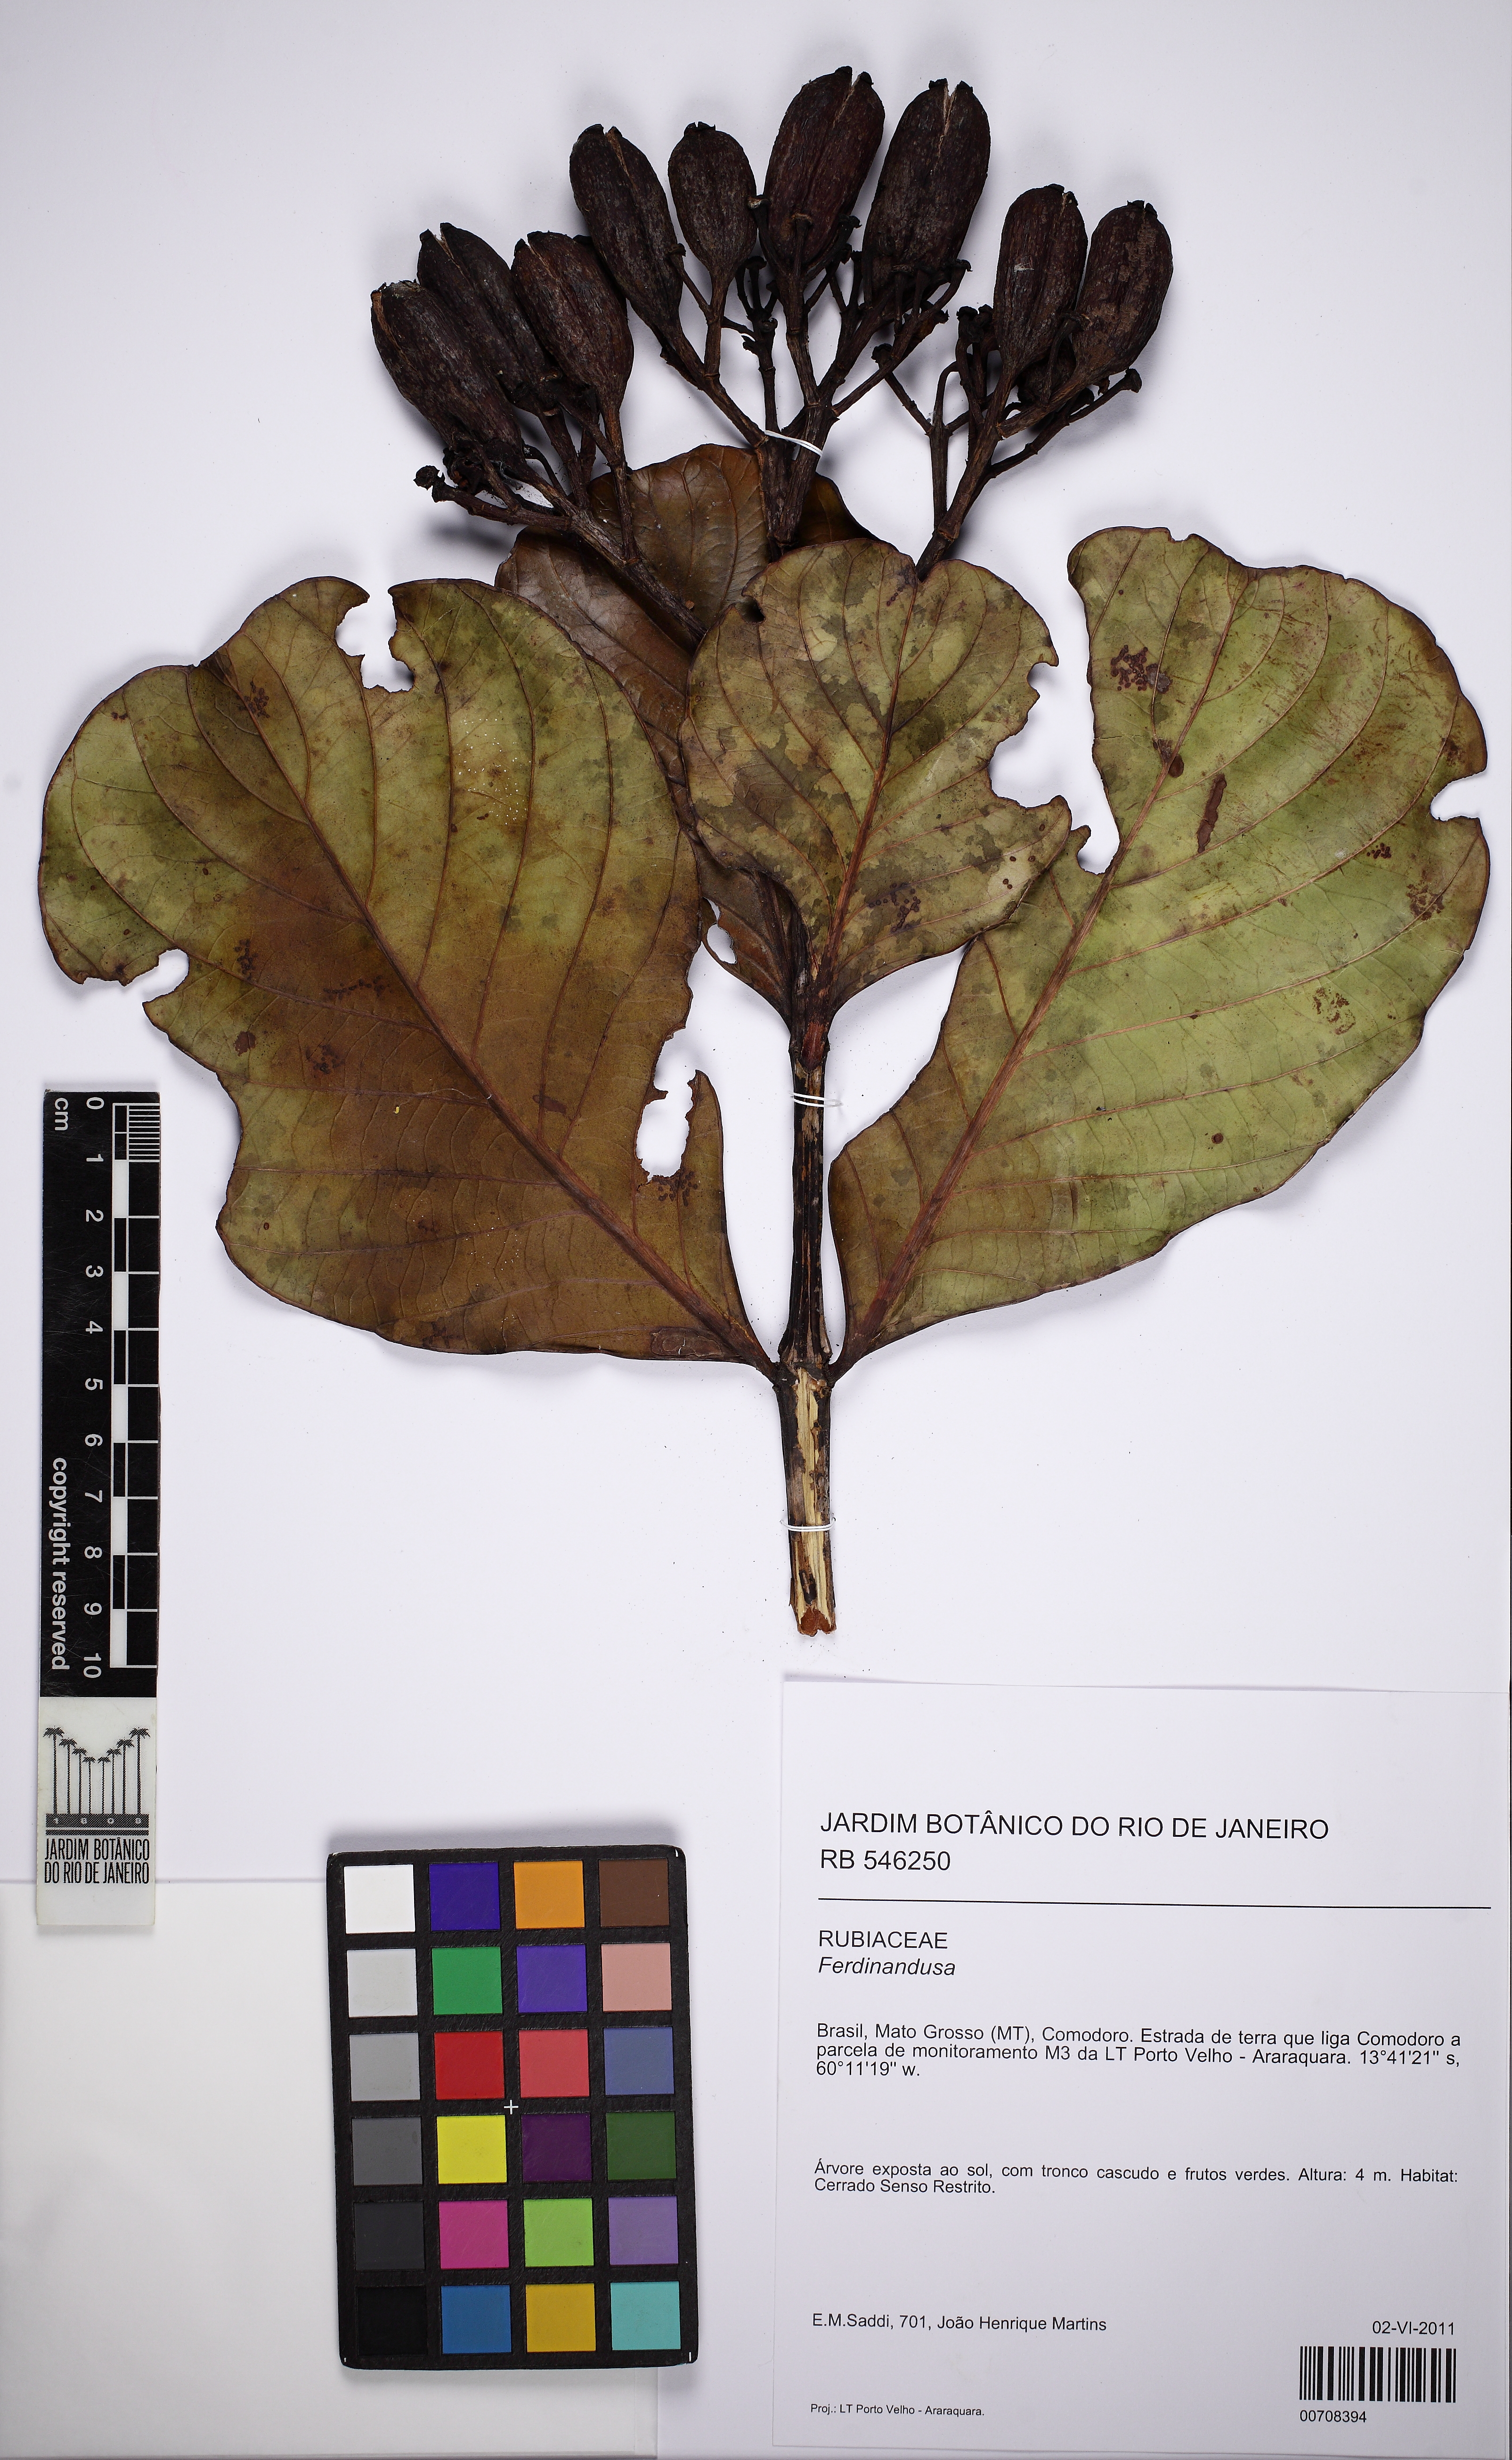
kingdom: Plantae
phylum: Tracheophyta
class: Magnoliopsida
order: Gentianales
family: Rubiaceae
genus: Ferdinandusa
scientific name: Ferdinandusa elliptica
